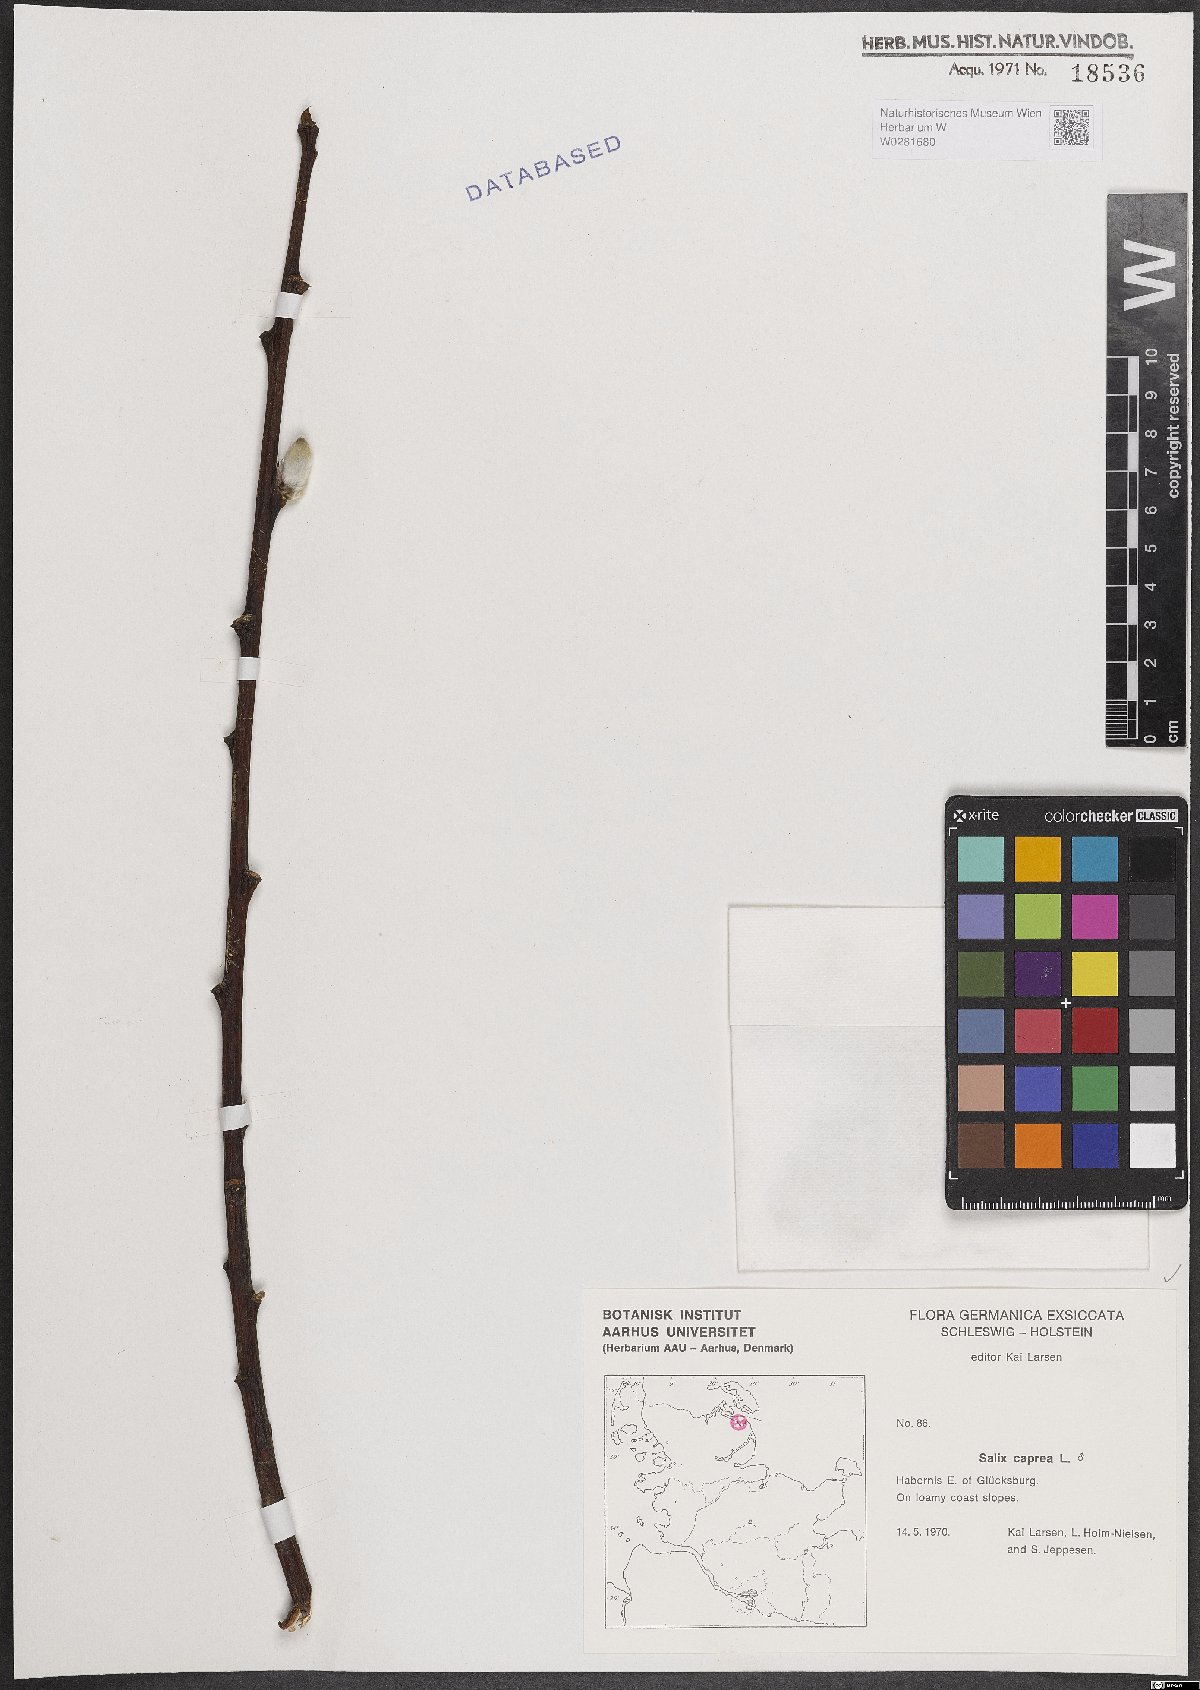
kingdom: Plantae
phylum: Tracheophyta
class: Magnoliopsida
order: Malpighiales
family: Salicaceae
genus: Salix
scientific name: Salix caprea
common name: Goat willow
